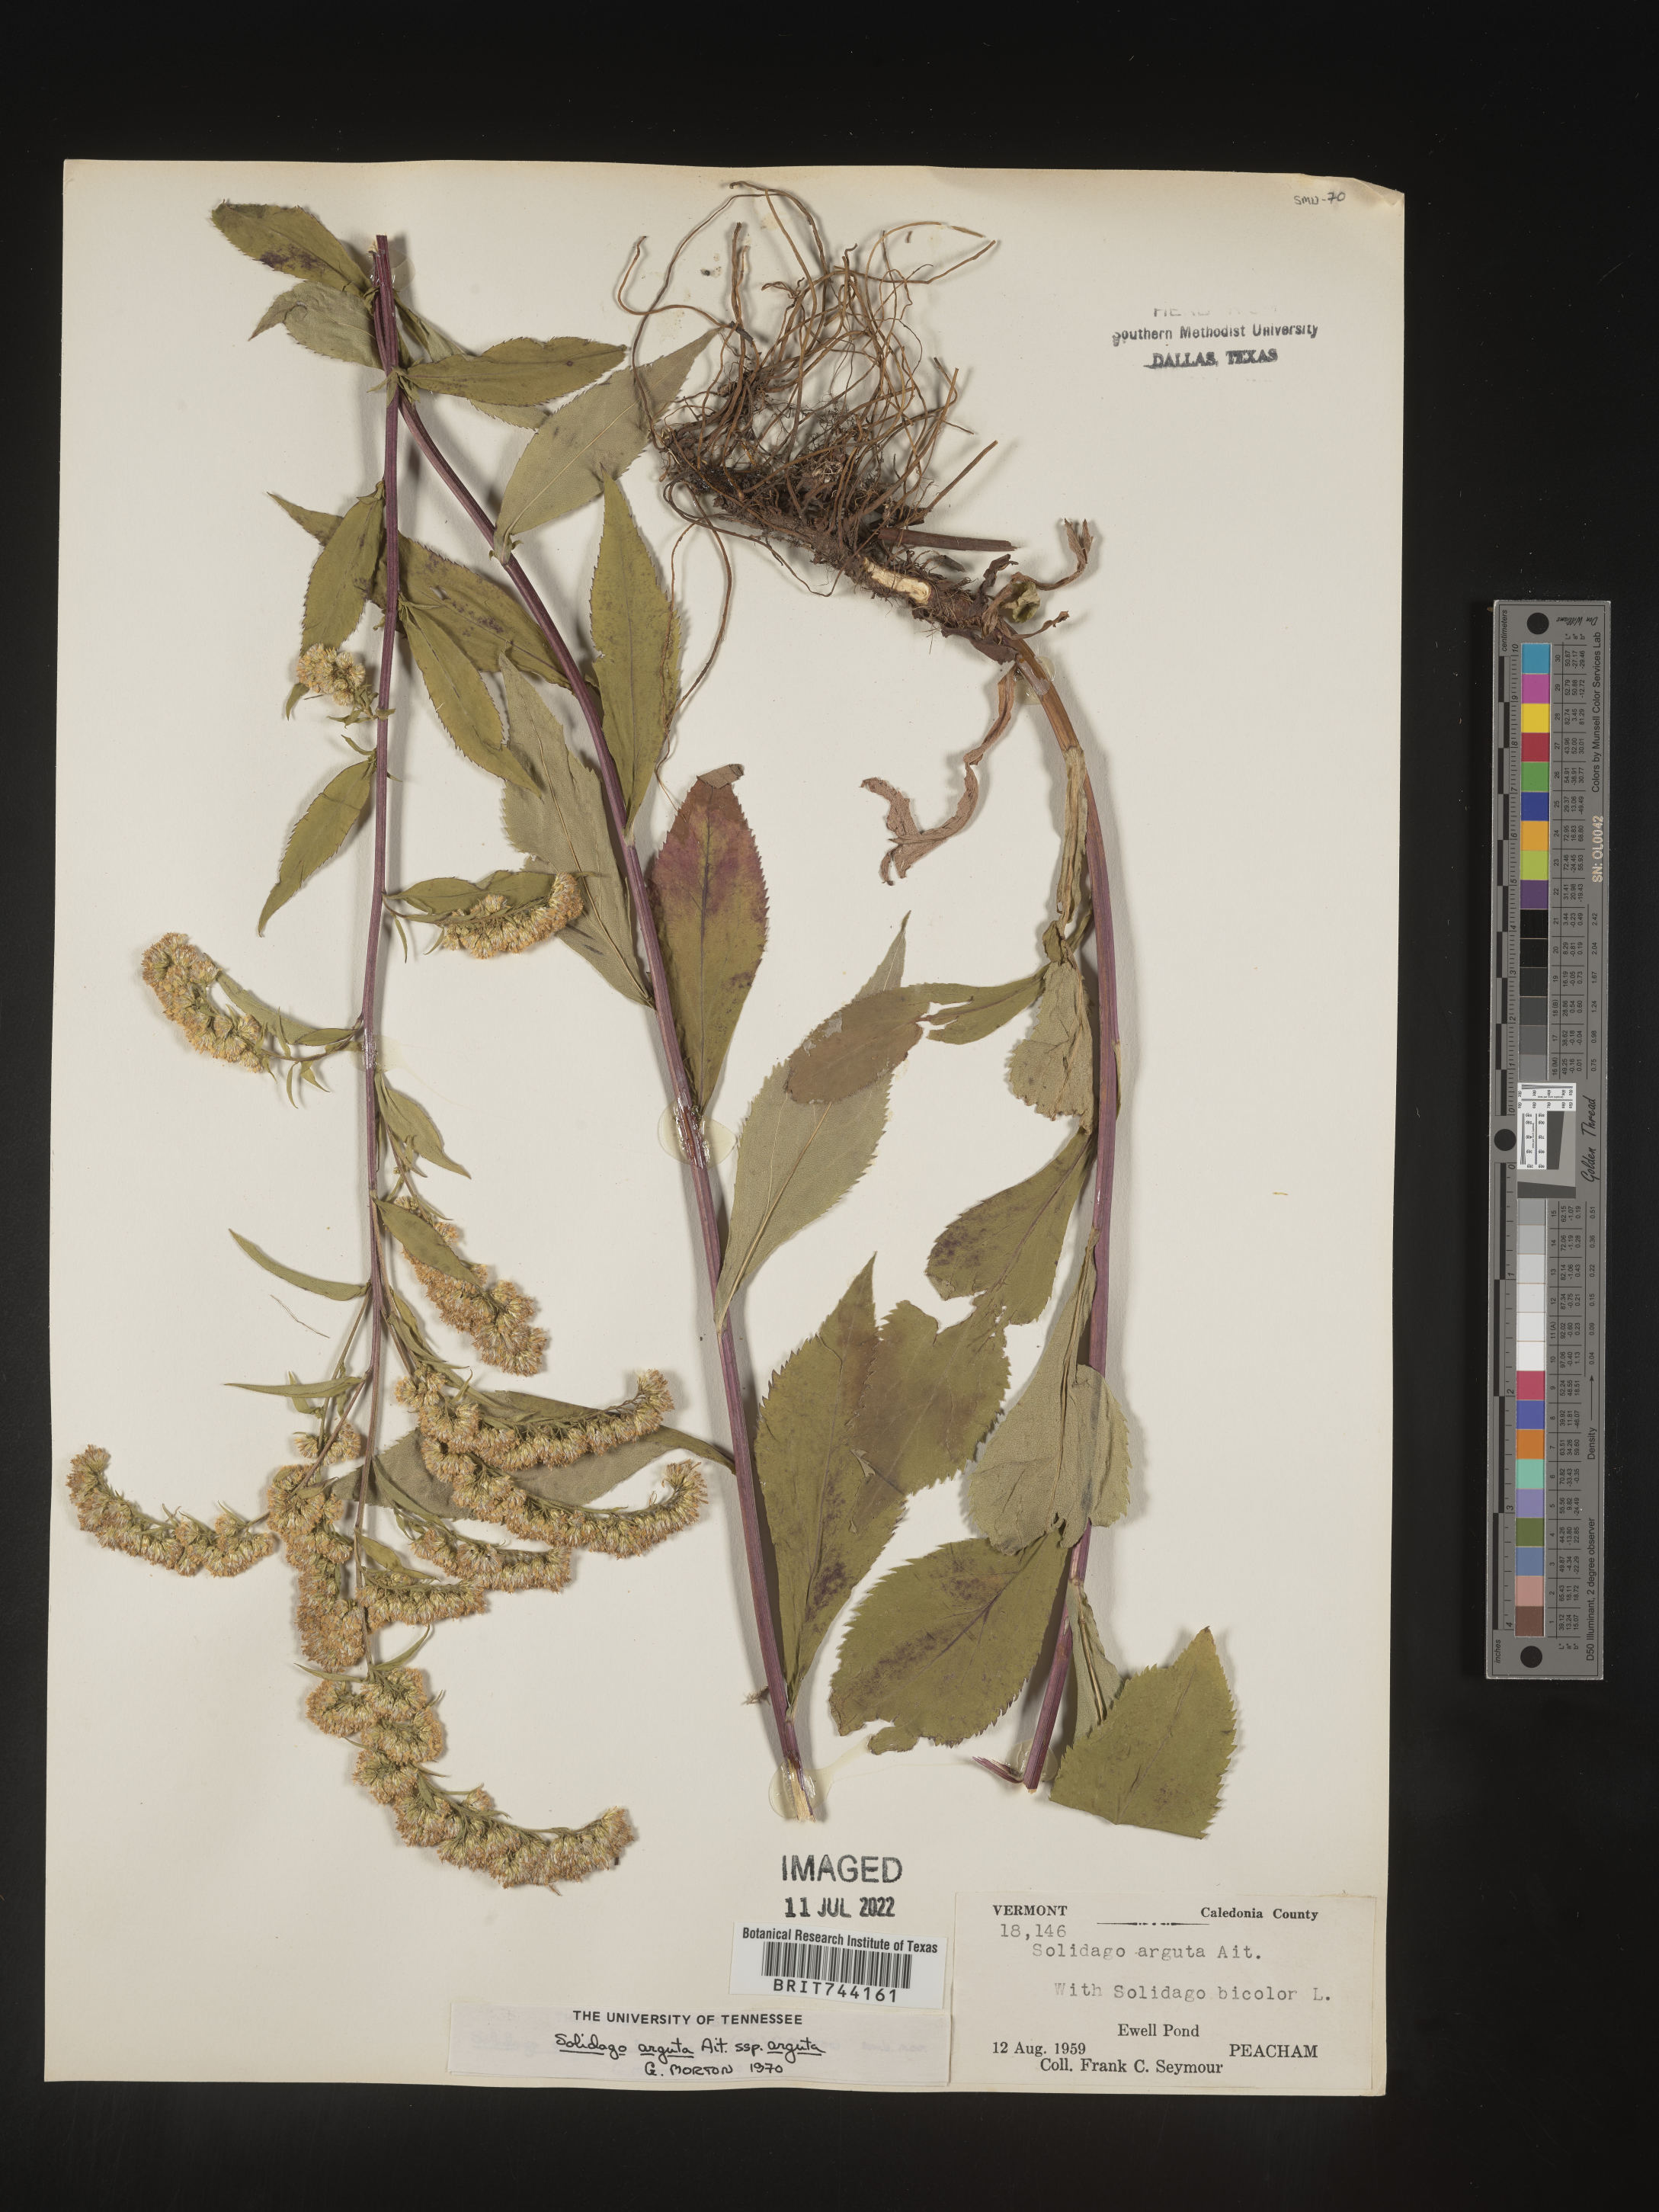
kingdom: Plantae
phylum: Tracheophyta
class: Magnoliopsida
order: Asterales
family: Asteraceae
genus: Solidago
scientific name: Solidago arguta
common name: Atlantic goldenrod
